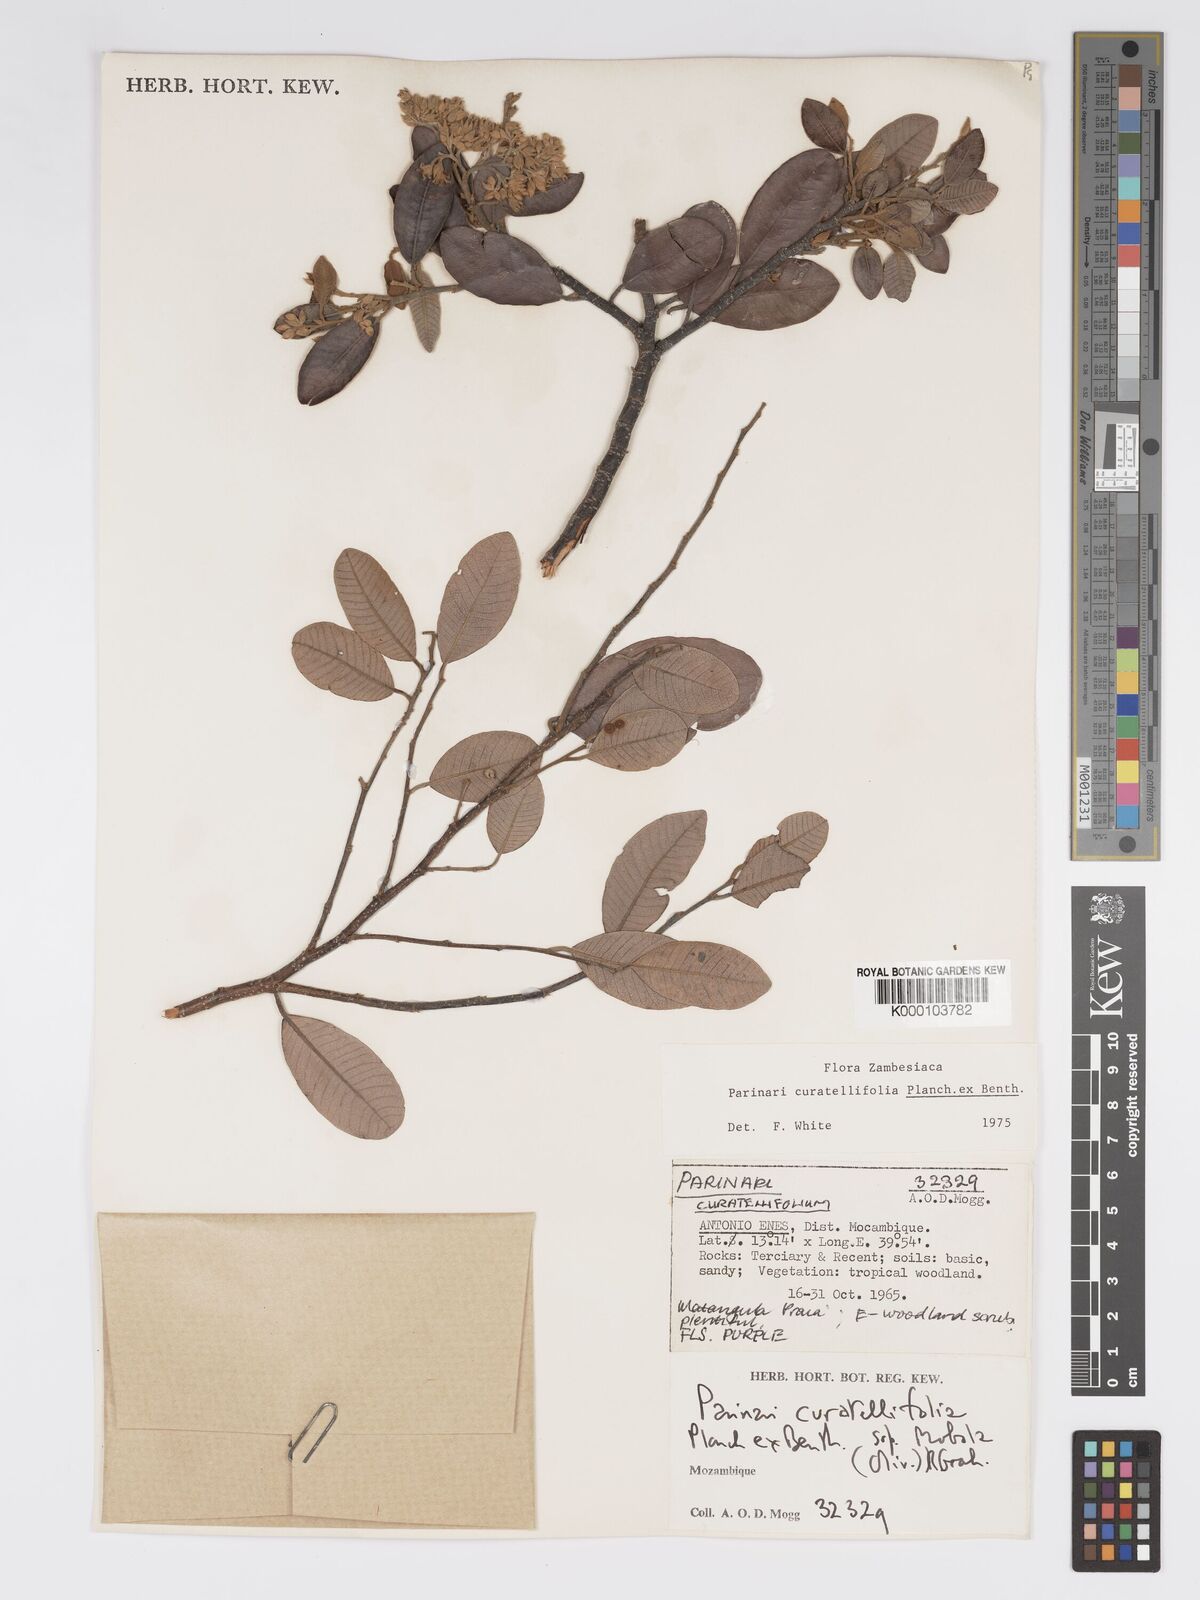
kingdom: Plantae
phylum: Tracheophyta
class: Magnoliopsida
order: Malpighiales
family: Chrysobalanaceae
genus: Parinari
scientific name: Parinari curatellifolia
